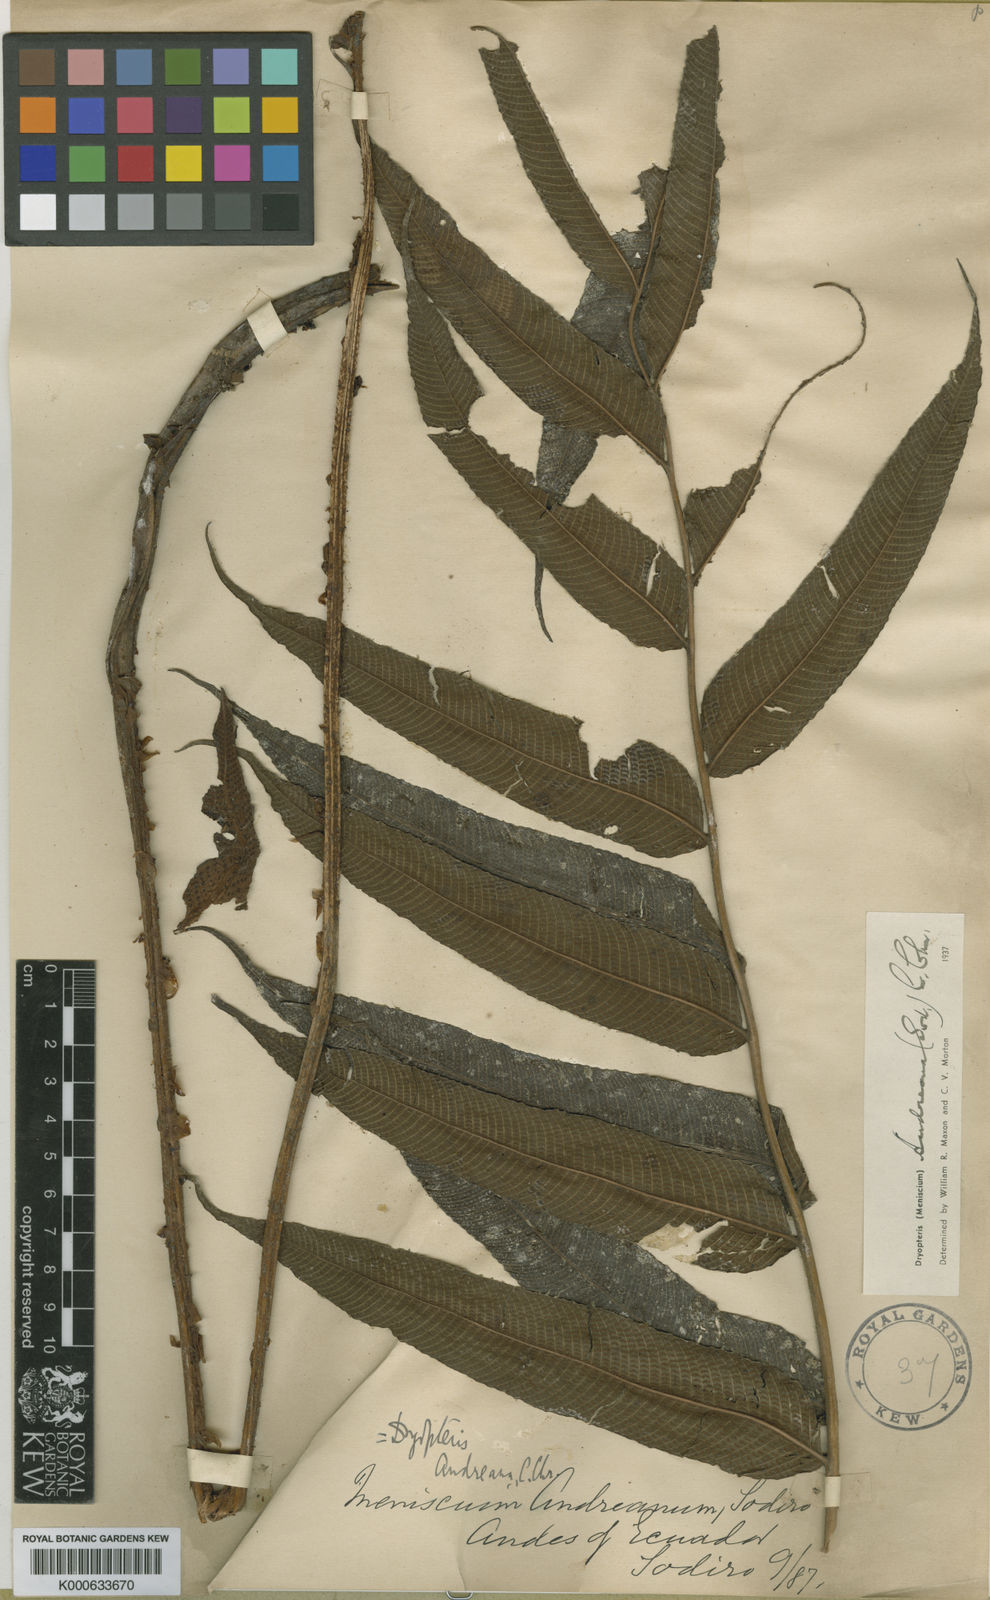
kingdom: Plantae
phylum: Tracheophyta
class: Polypodiopsida
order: Polypodiales
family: Thelypteridaceae
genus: Meniscium
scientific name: Meniscium andreanum
